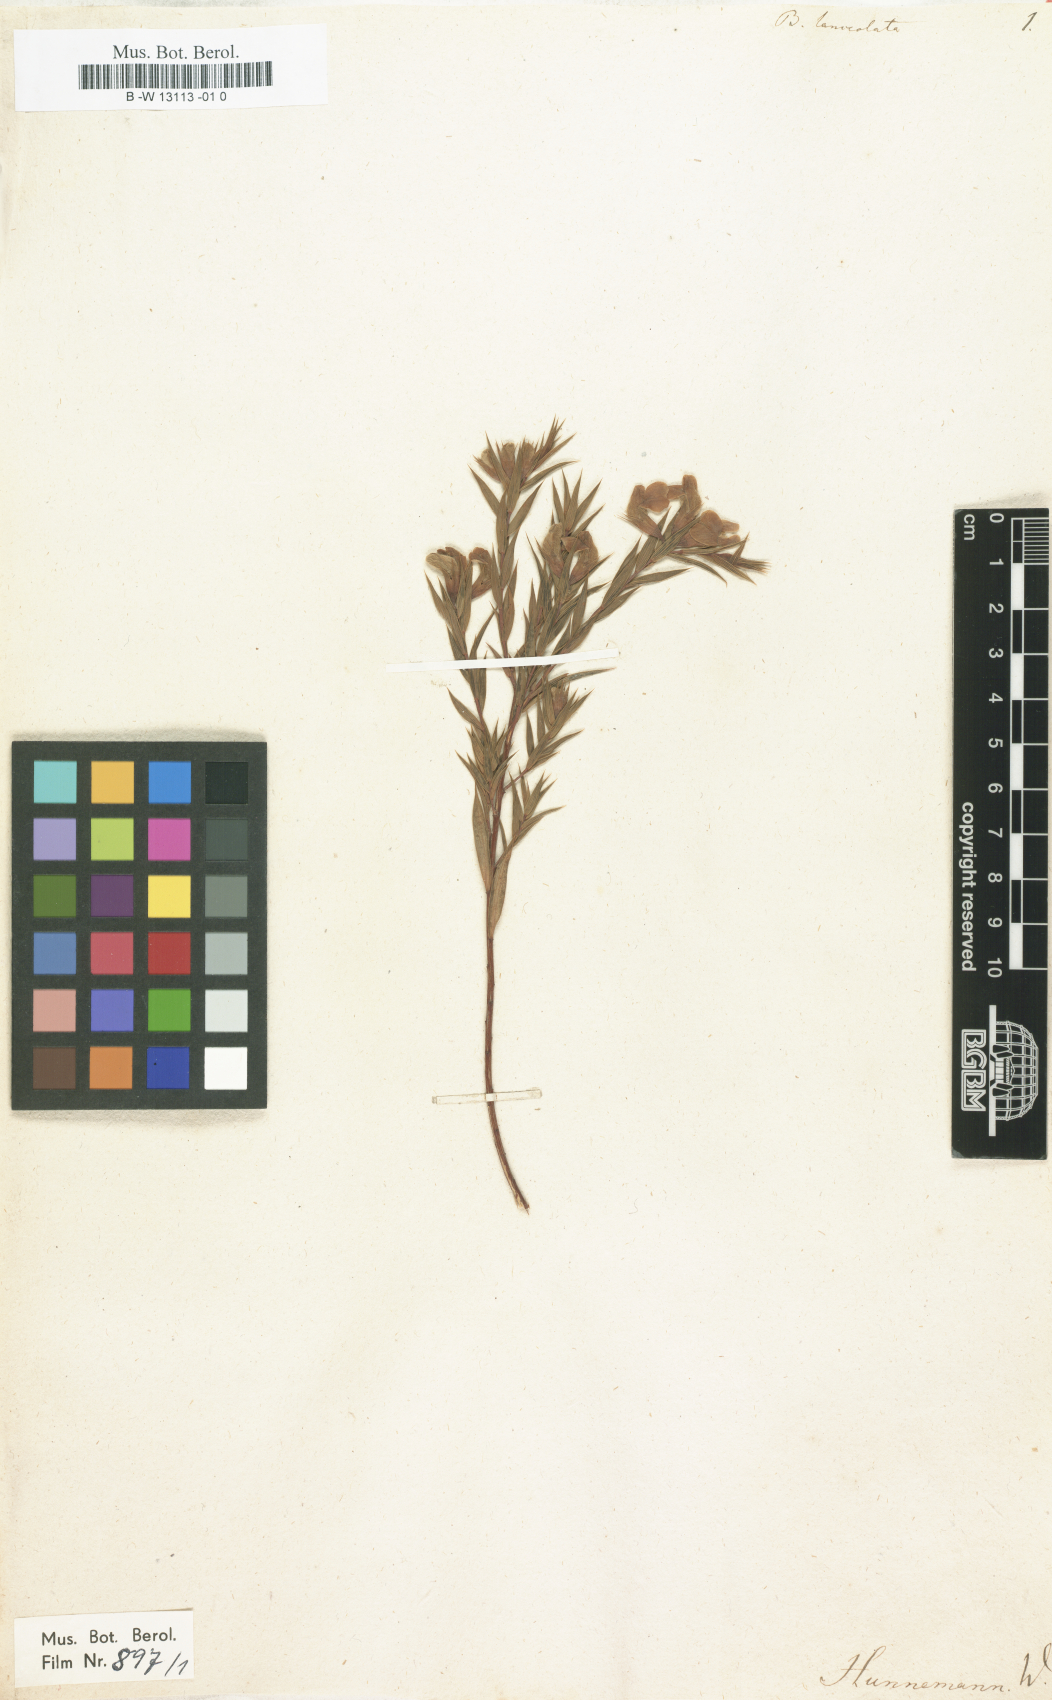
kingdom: Plantae
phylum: Tracheophyta
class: Magnoliopsida
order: Fabales
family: Fabaceae
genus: Aspalathus
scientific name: Aspalathus angustifolia
